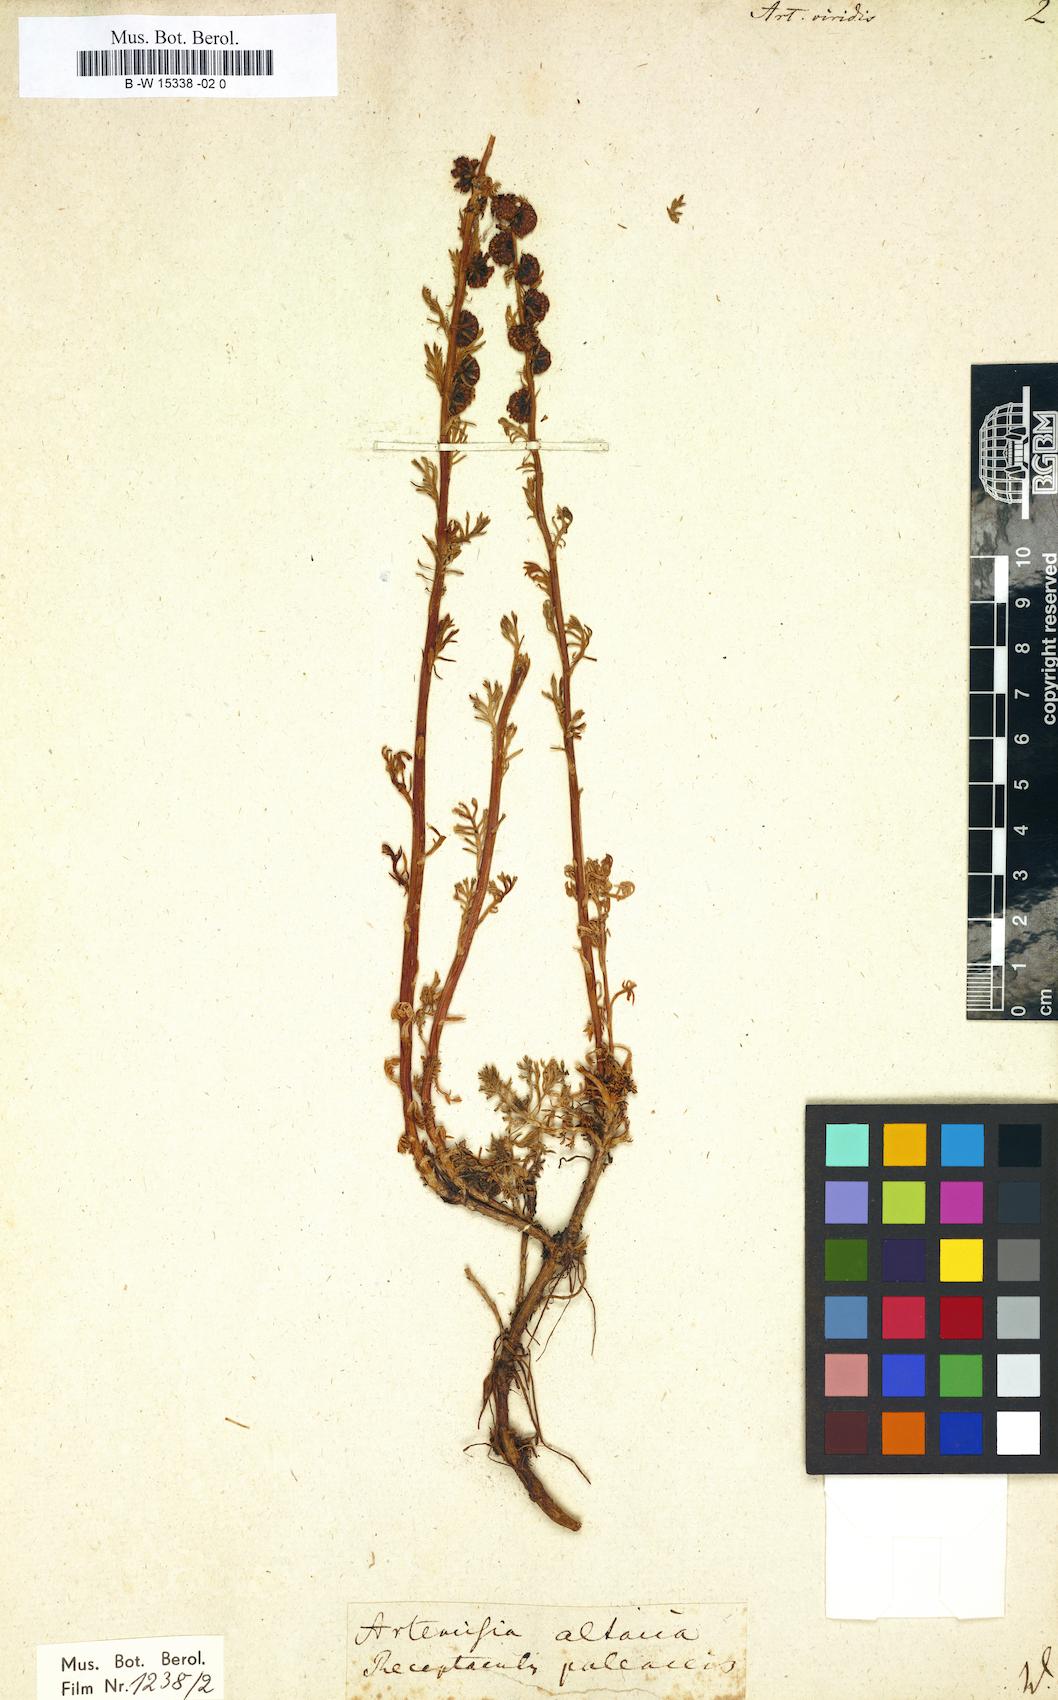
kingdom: Plantae
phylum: Tracheophyta
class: Magnoliopsida
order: Asterales
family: Asteraceae
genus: Artemisia
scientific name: Artemisia viridis
